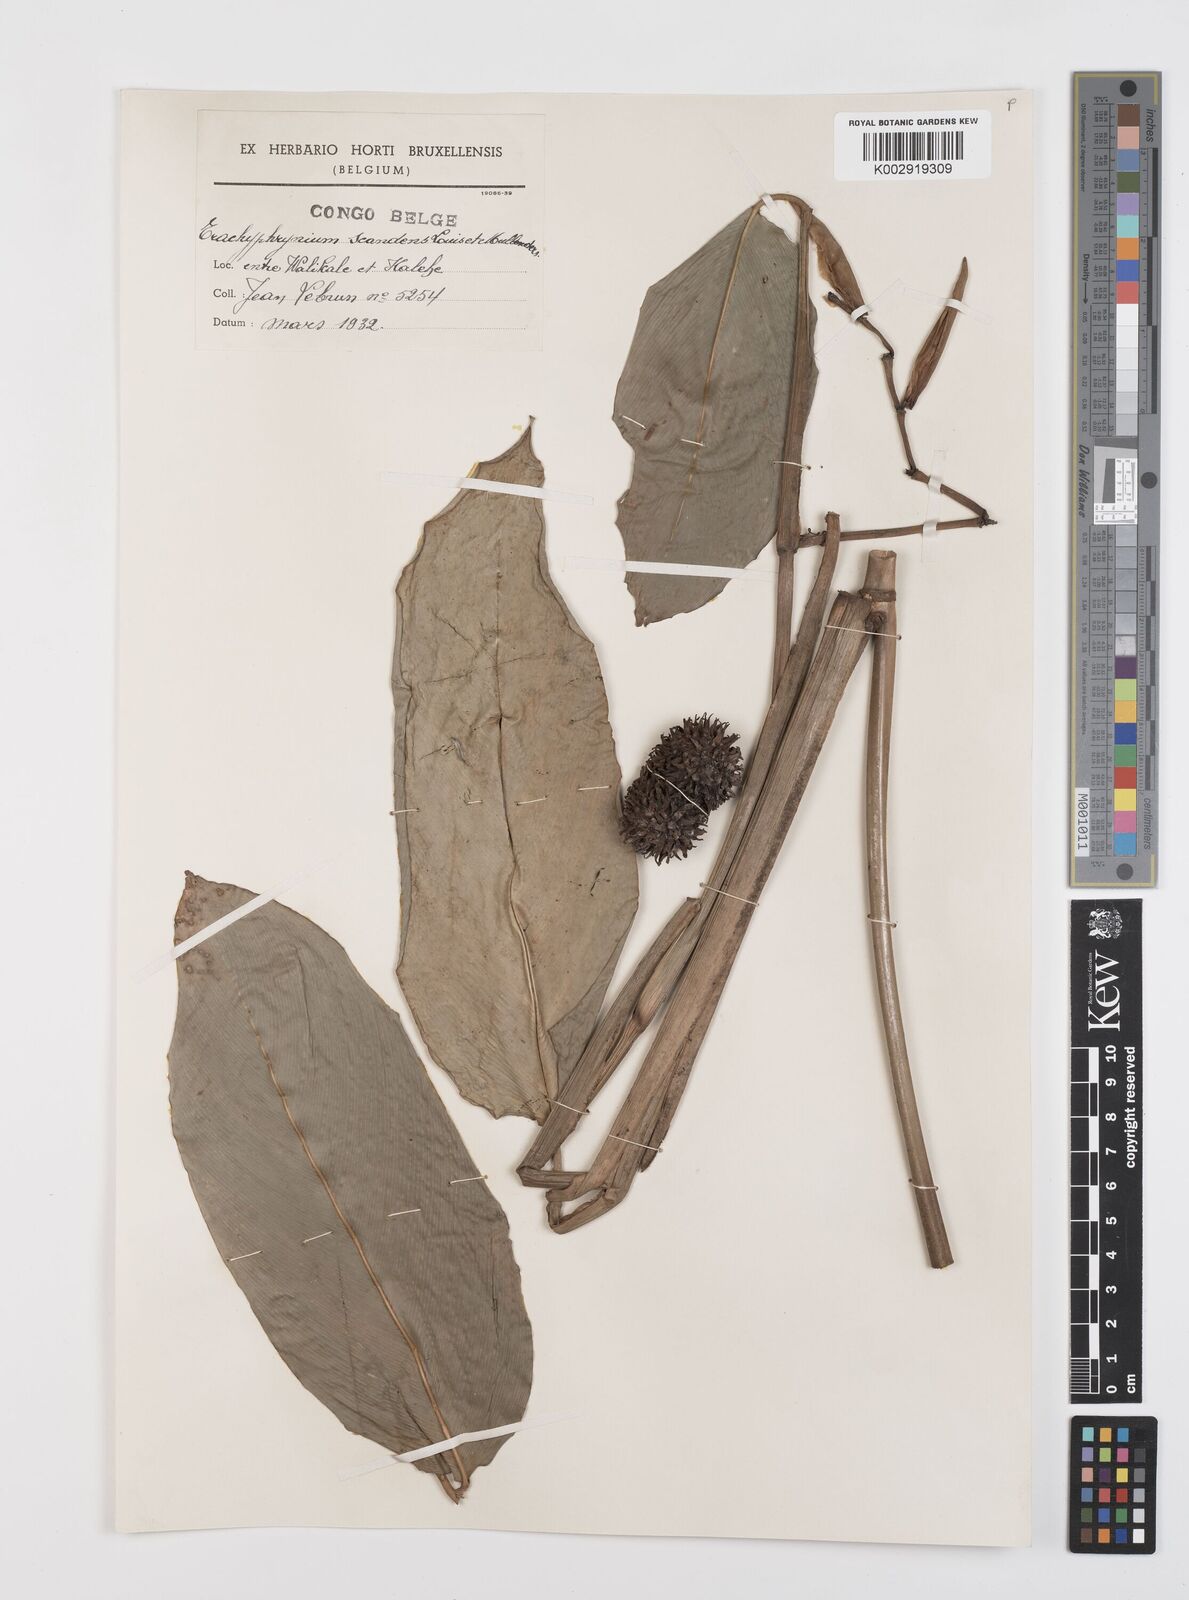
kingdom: Plantae
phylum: Tracheophyta
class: Liliopsida
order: Zingiberales
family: Marantaceae
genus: Hypselodelphys
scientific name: Hypselodelphys scandens
